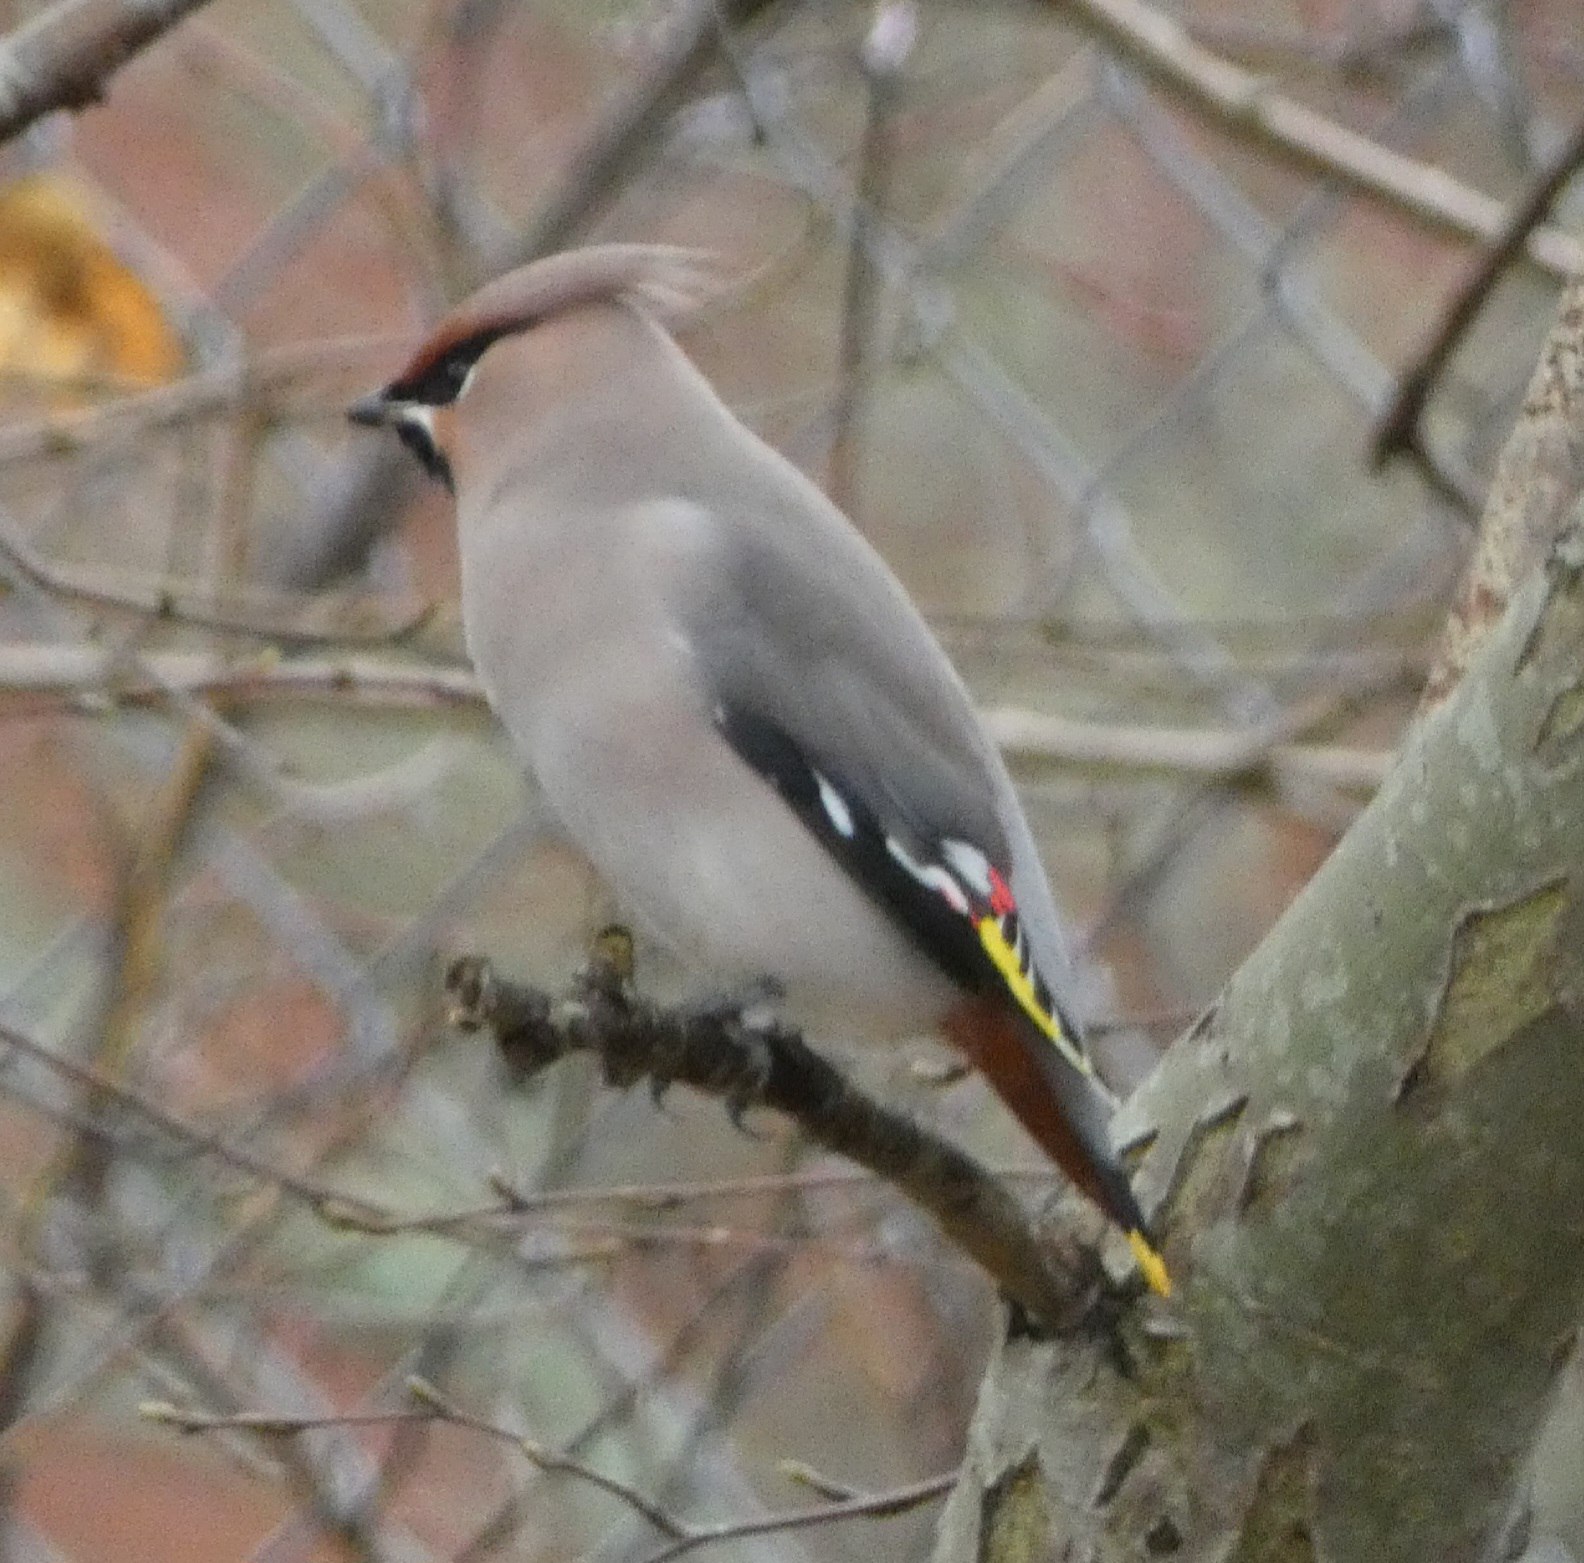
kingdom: Animalia
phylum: Chordata
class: Aves
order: Passeriformes
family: Bombycillidae
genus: Bombycilla
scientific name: Bombycilla garrulus
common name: Silkehale
